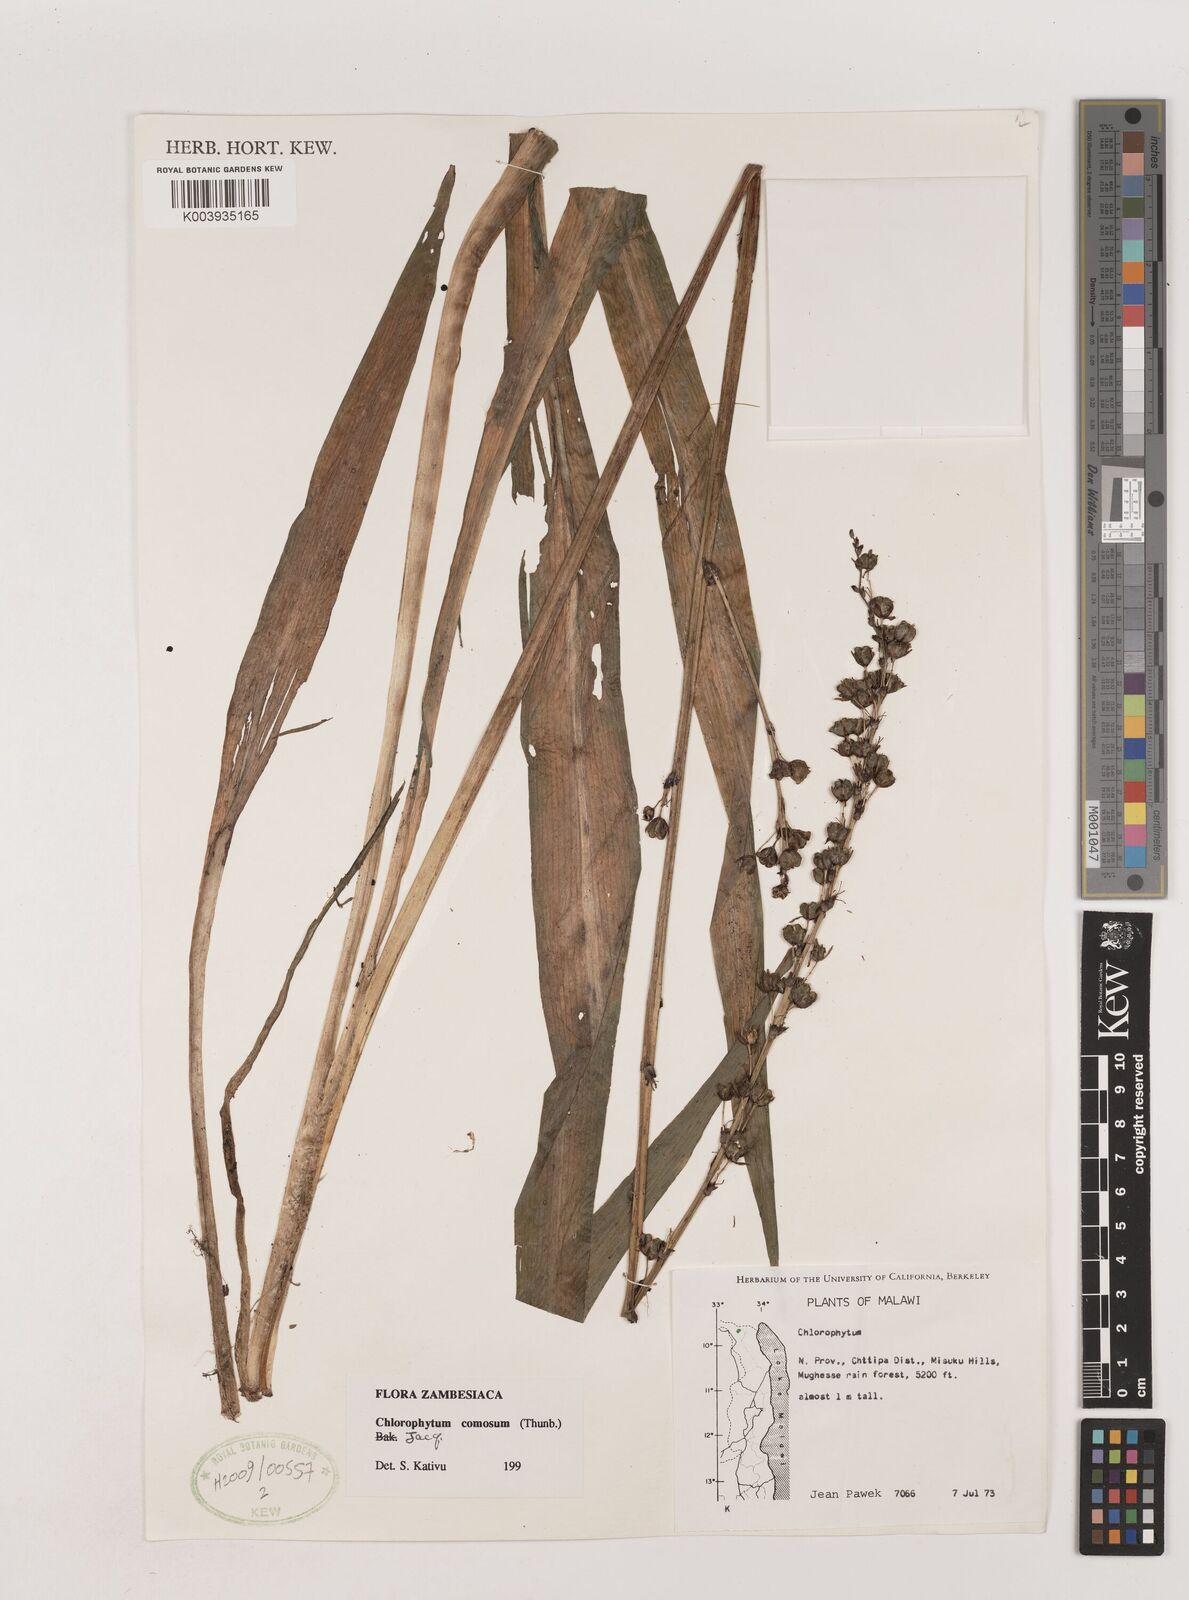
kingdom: Plantae
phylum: Tracheophyta
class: Liliopsida
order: Asparagales
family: Asparagaceae
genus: Chlorophytum
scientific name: Chlorophytum comosum
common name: Spider plant
